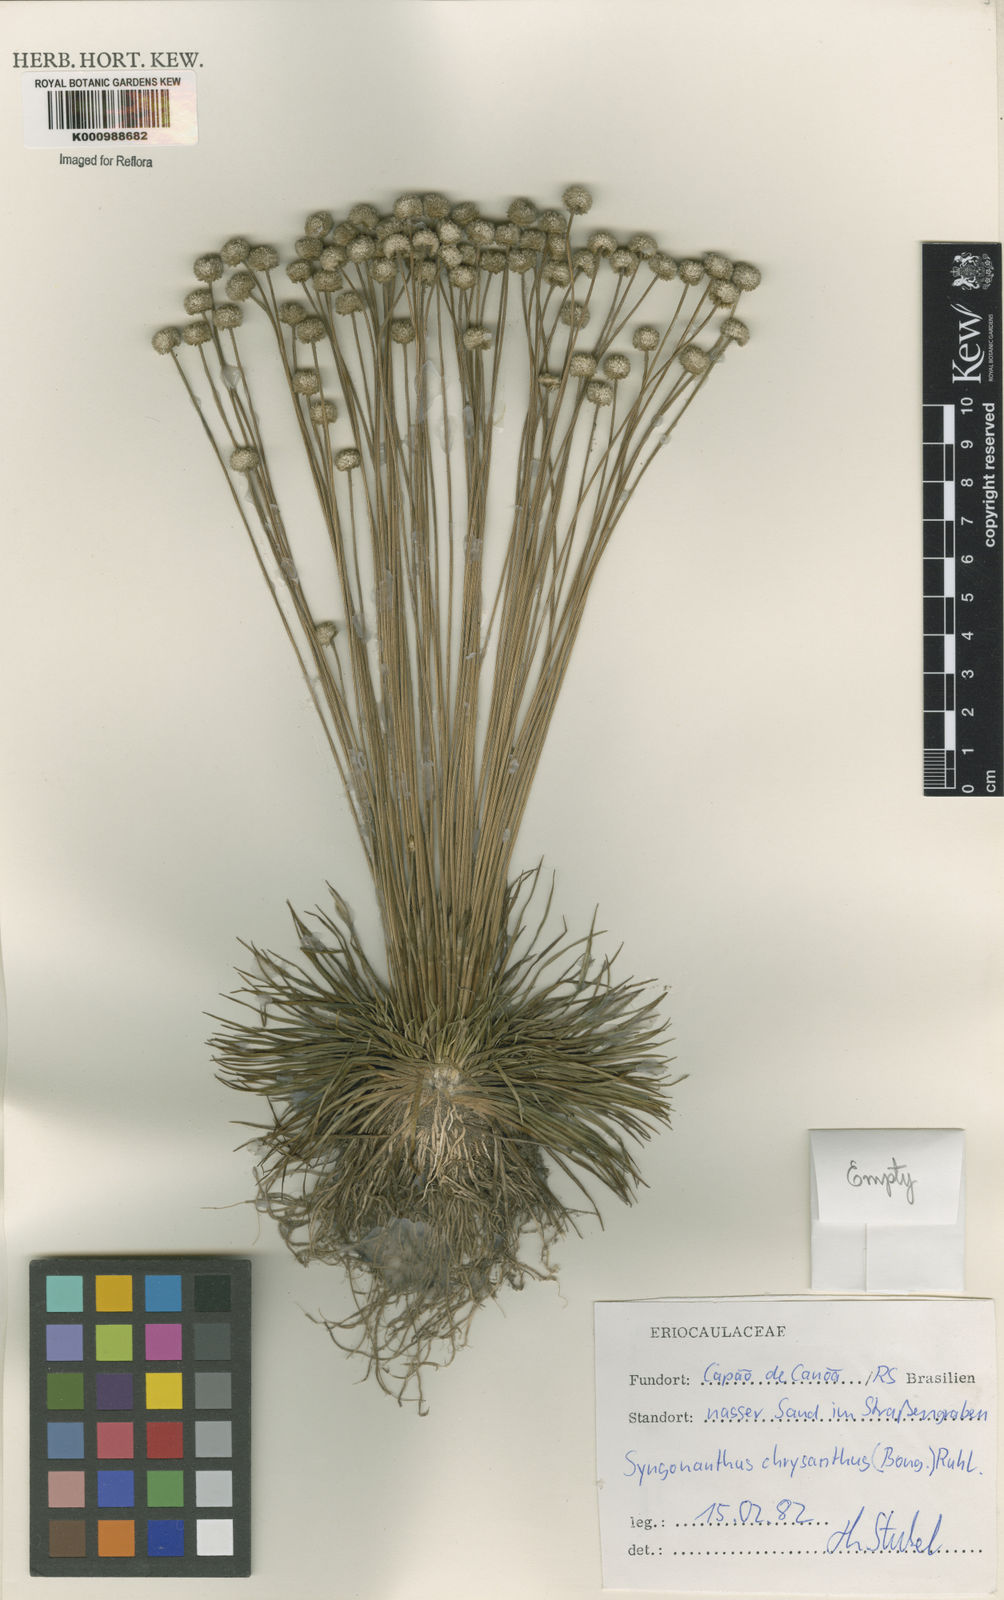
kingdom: Plantae
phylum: Tracheophyta
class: Liliopsida
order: Poales
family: Eriocaulaceae
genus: Syngonanthus
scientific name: Syngonanthus chrysanthus
